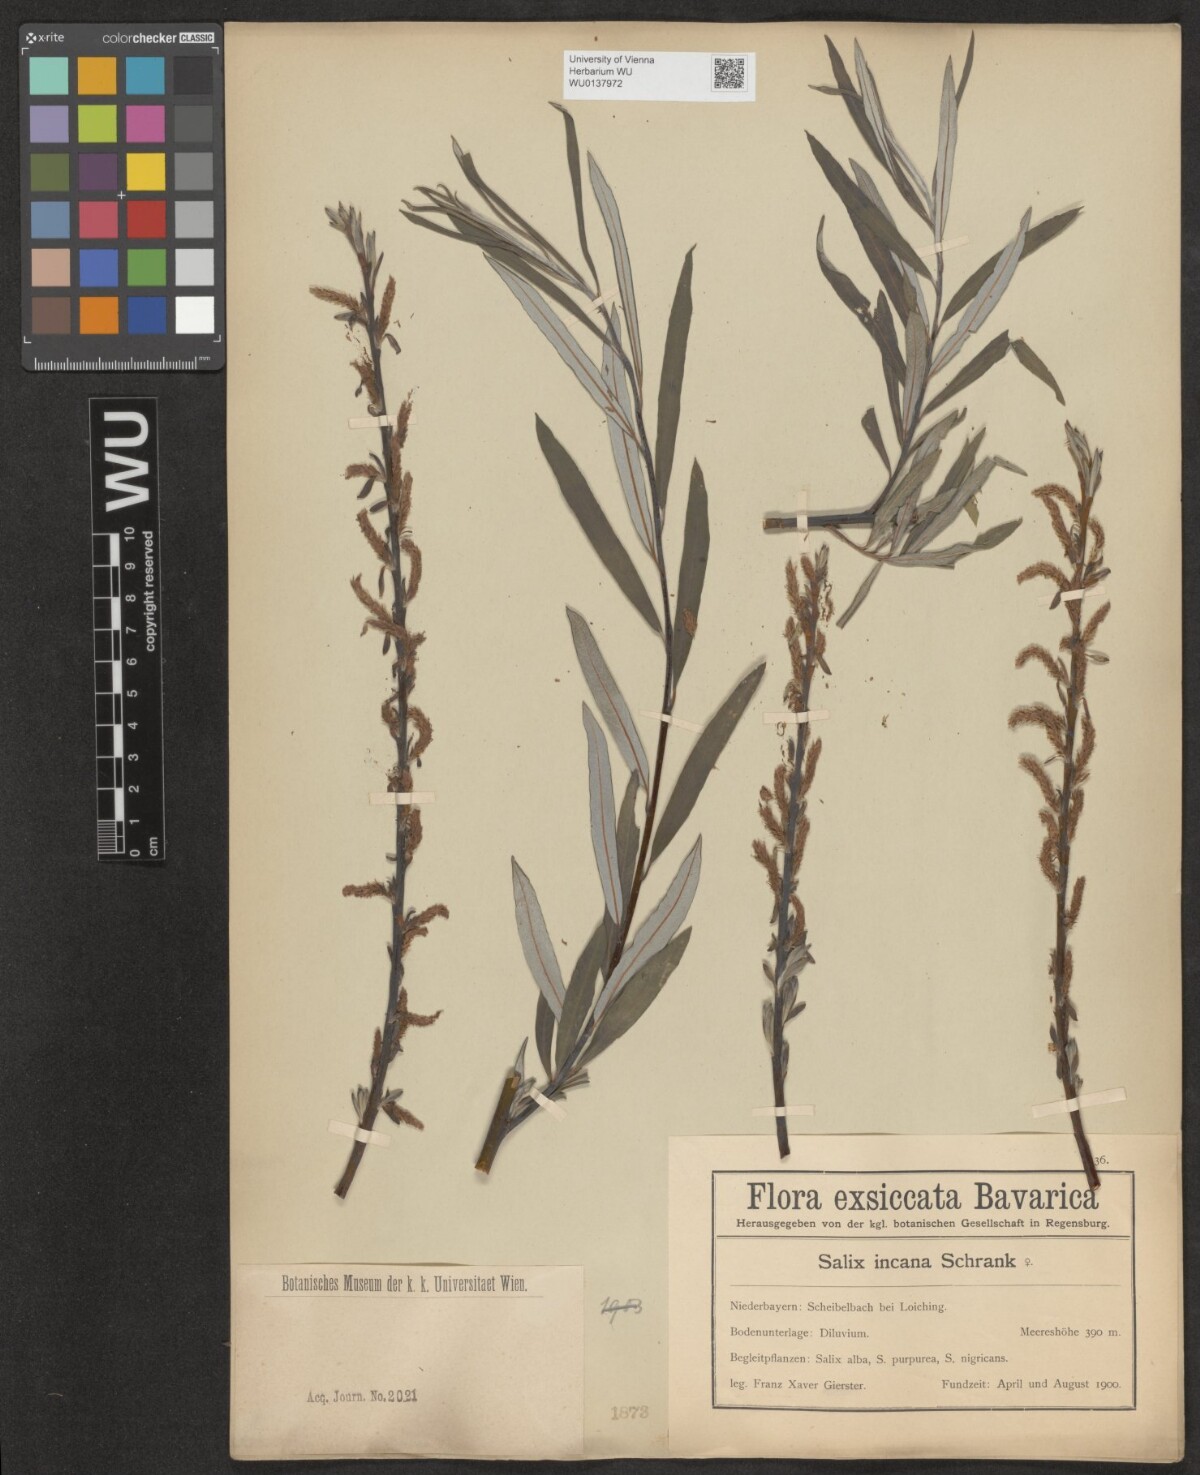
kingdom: Plantae
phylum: Tracheophyta
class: Magnoliopsida
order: Malpighiales
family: Salicaceae
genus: Salix
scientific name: Salix eleagnos
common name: Elaeagnus willow
